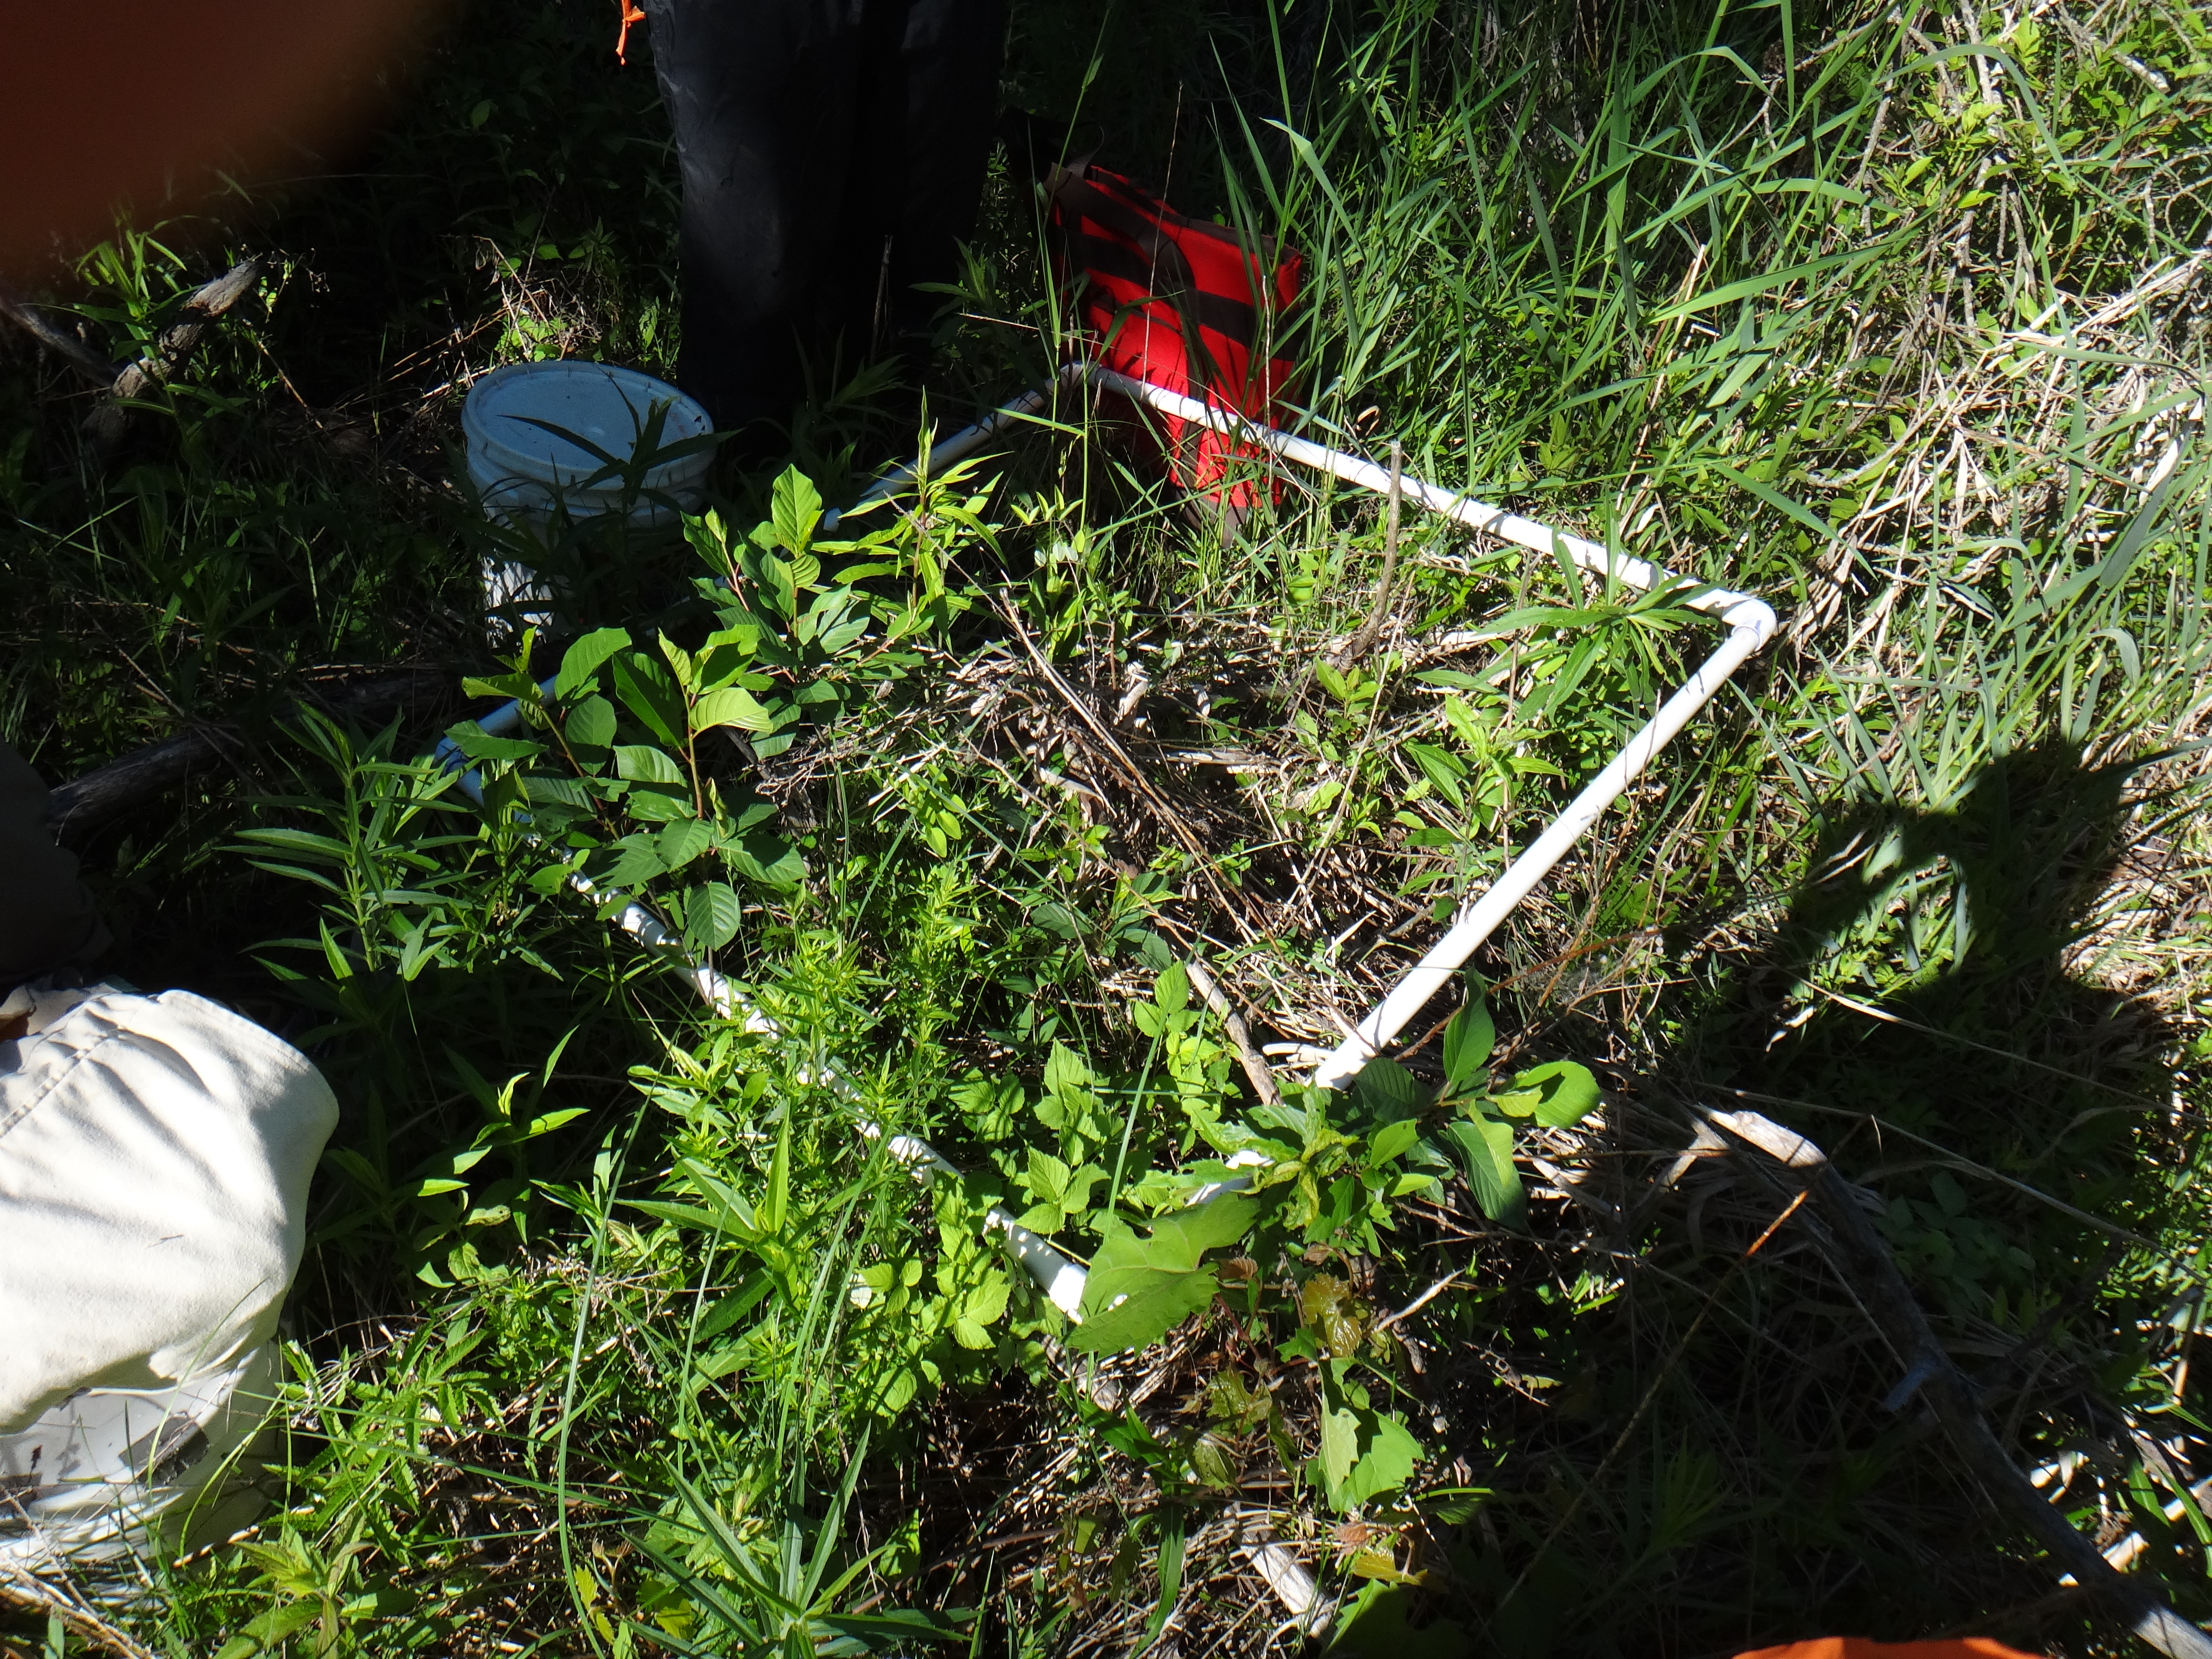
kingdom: Plantae
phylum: Tracheophyta
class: Liliopsida
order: Poales
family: Cyperaceae
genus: Scirpus
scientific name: Scirpus atrovirens
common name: Black bulrush
